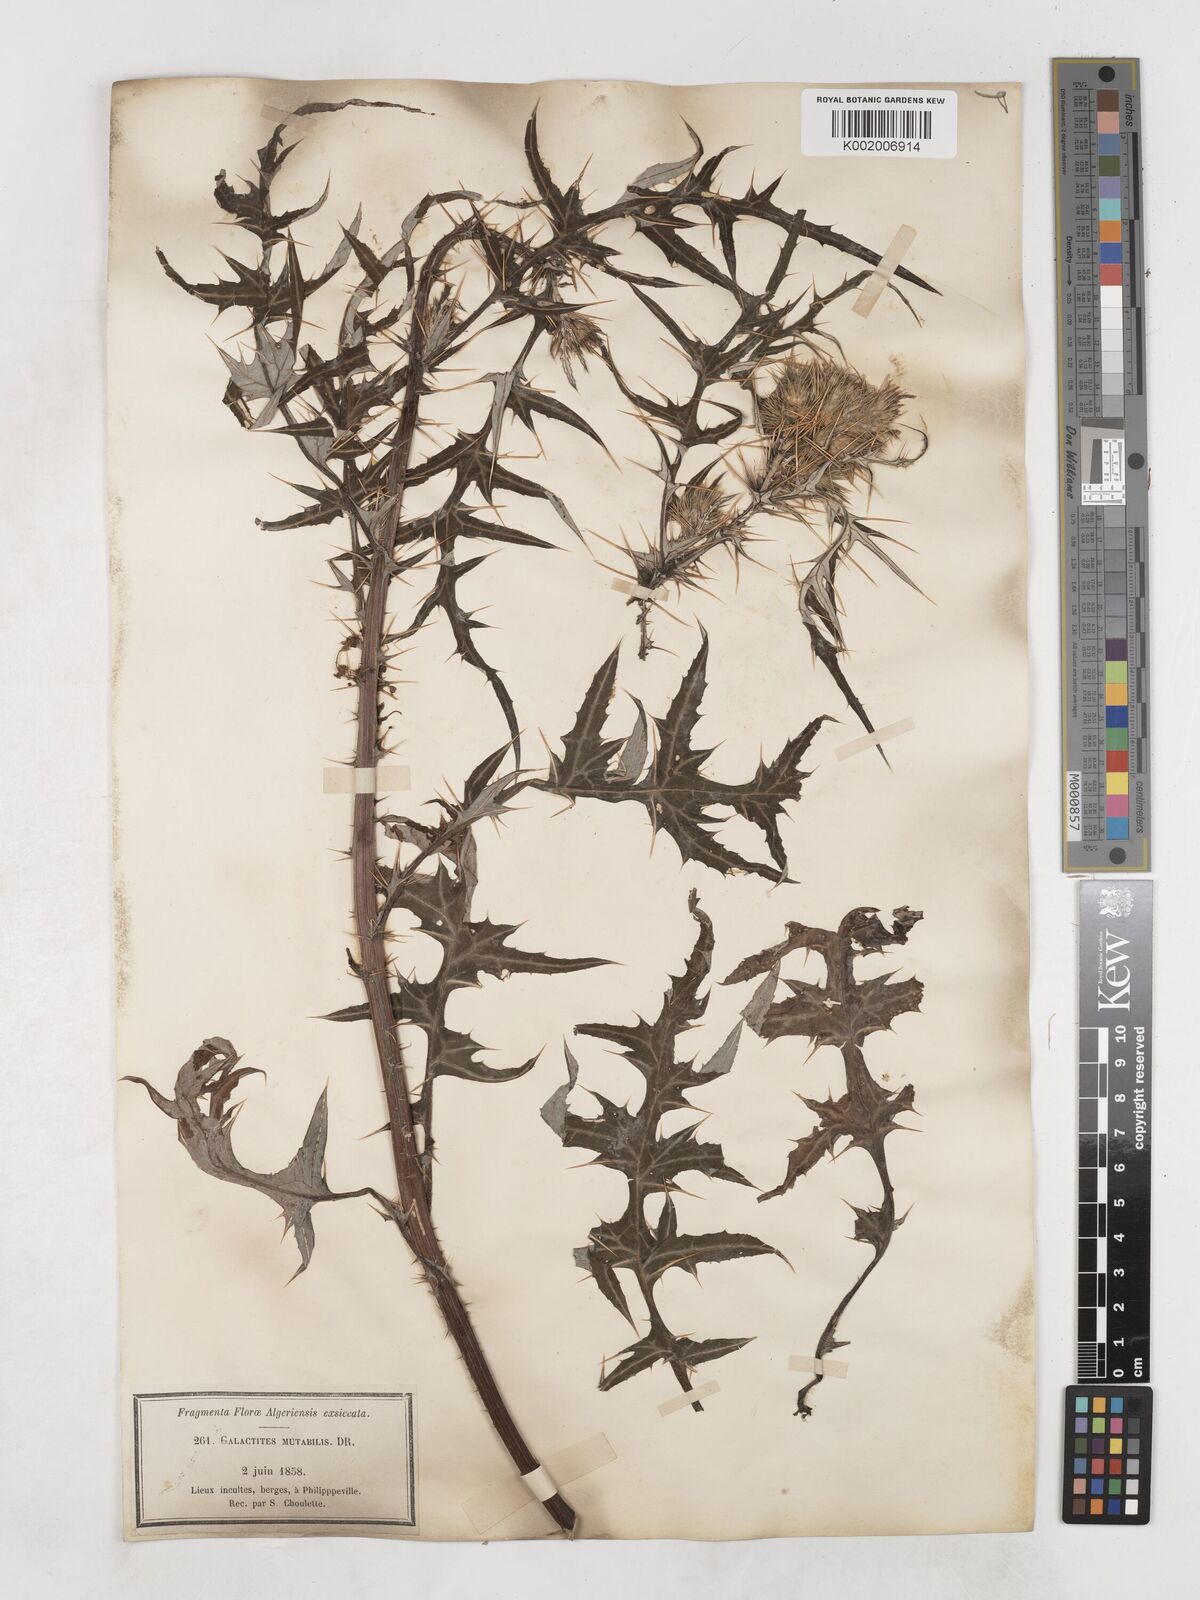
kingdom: Plantae
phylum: Tracheophyta
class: Magnoliopsida
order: Asterales
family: Asteraceae
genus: Galactites
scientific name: Galactites
